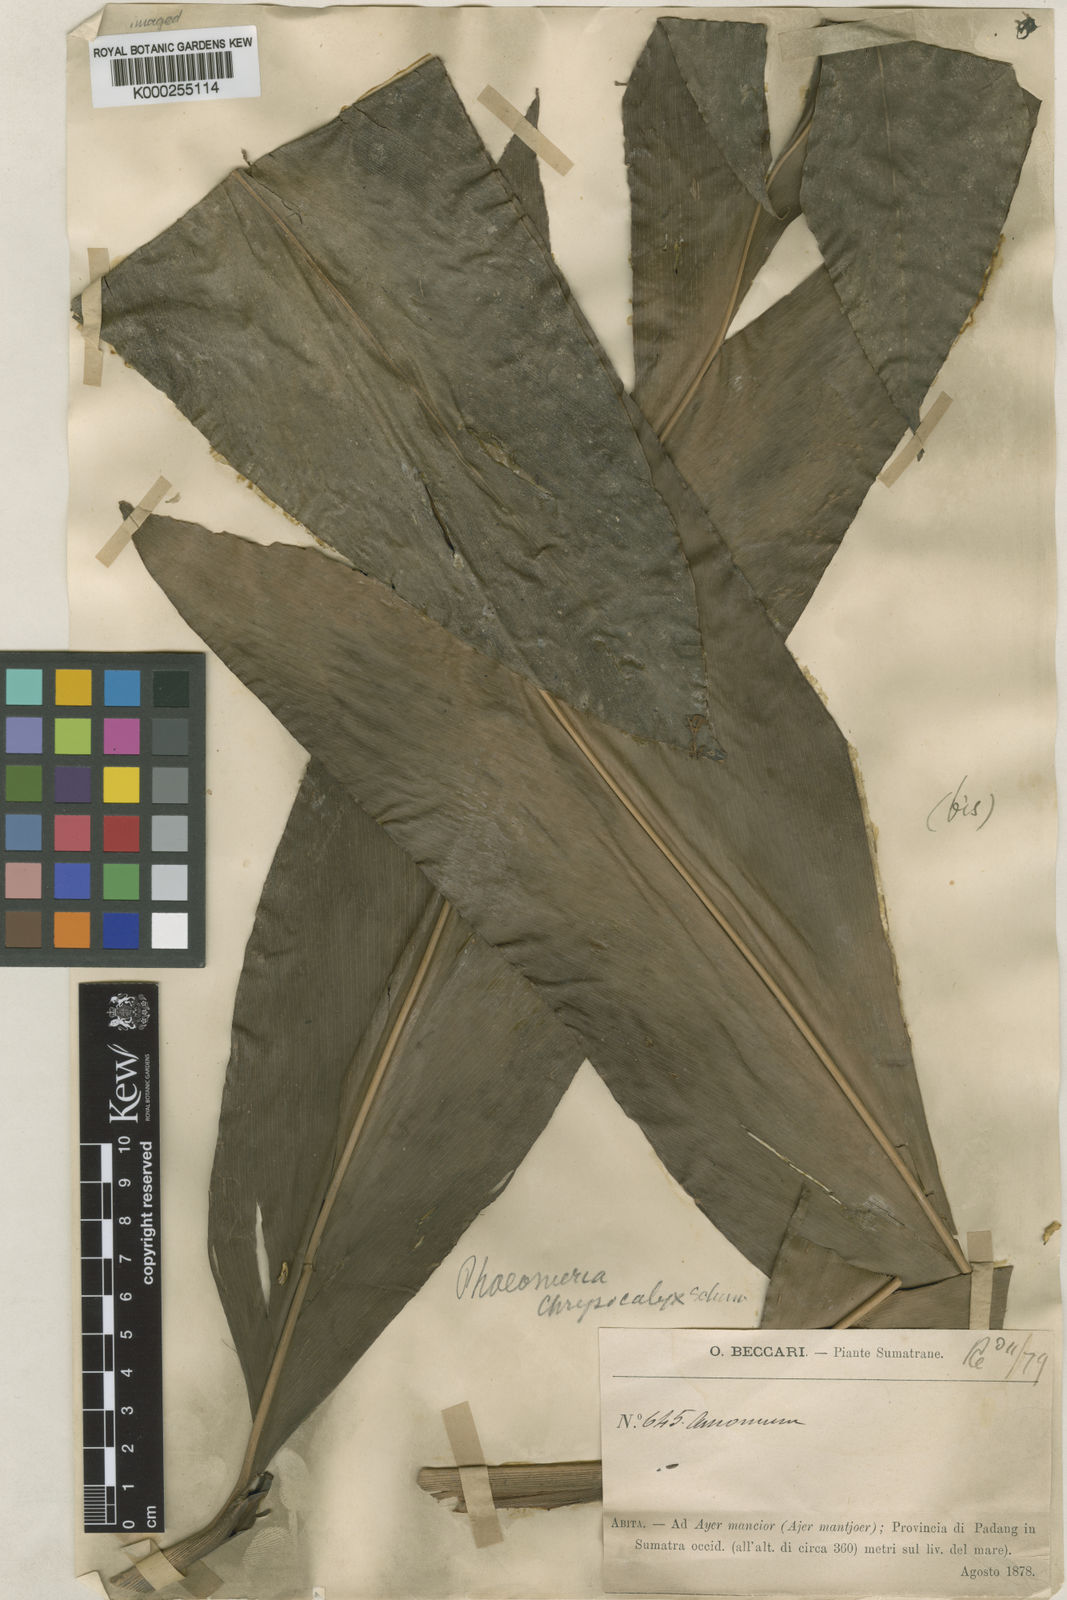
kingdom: Plantae
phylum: Tracheophyta
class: Liliopsida
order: Zingiberales
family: Zingiberaceae
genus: Etlingera
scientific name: Etlingera solaris
